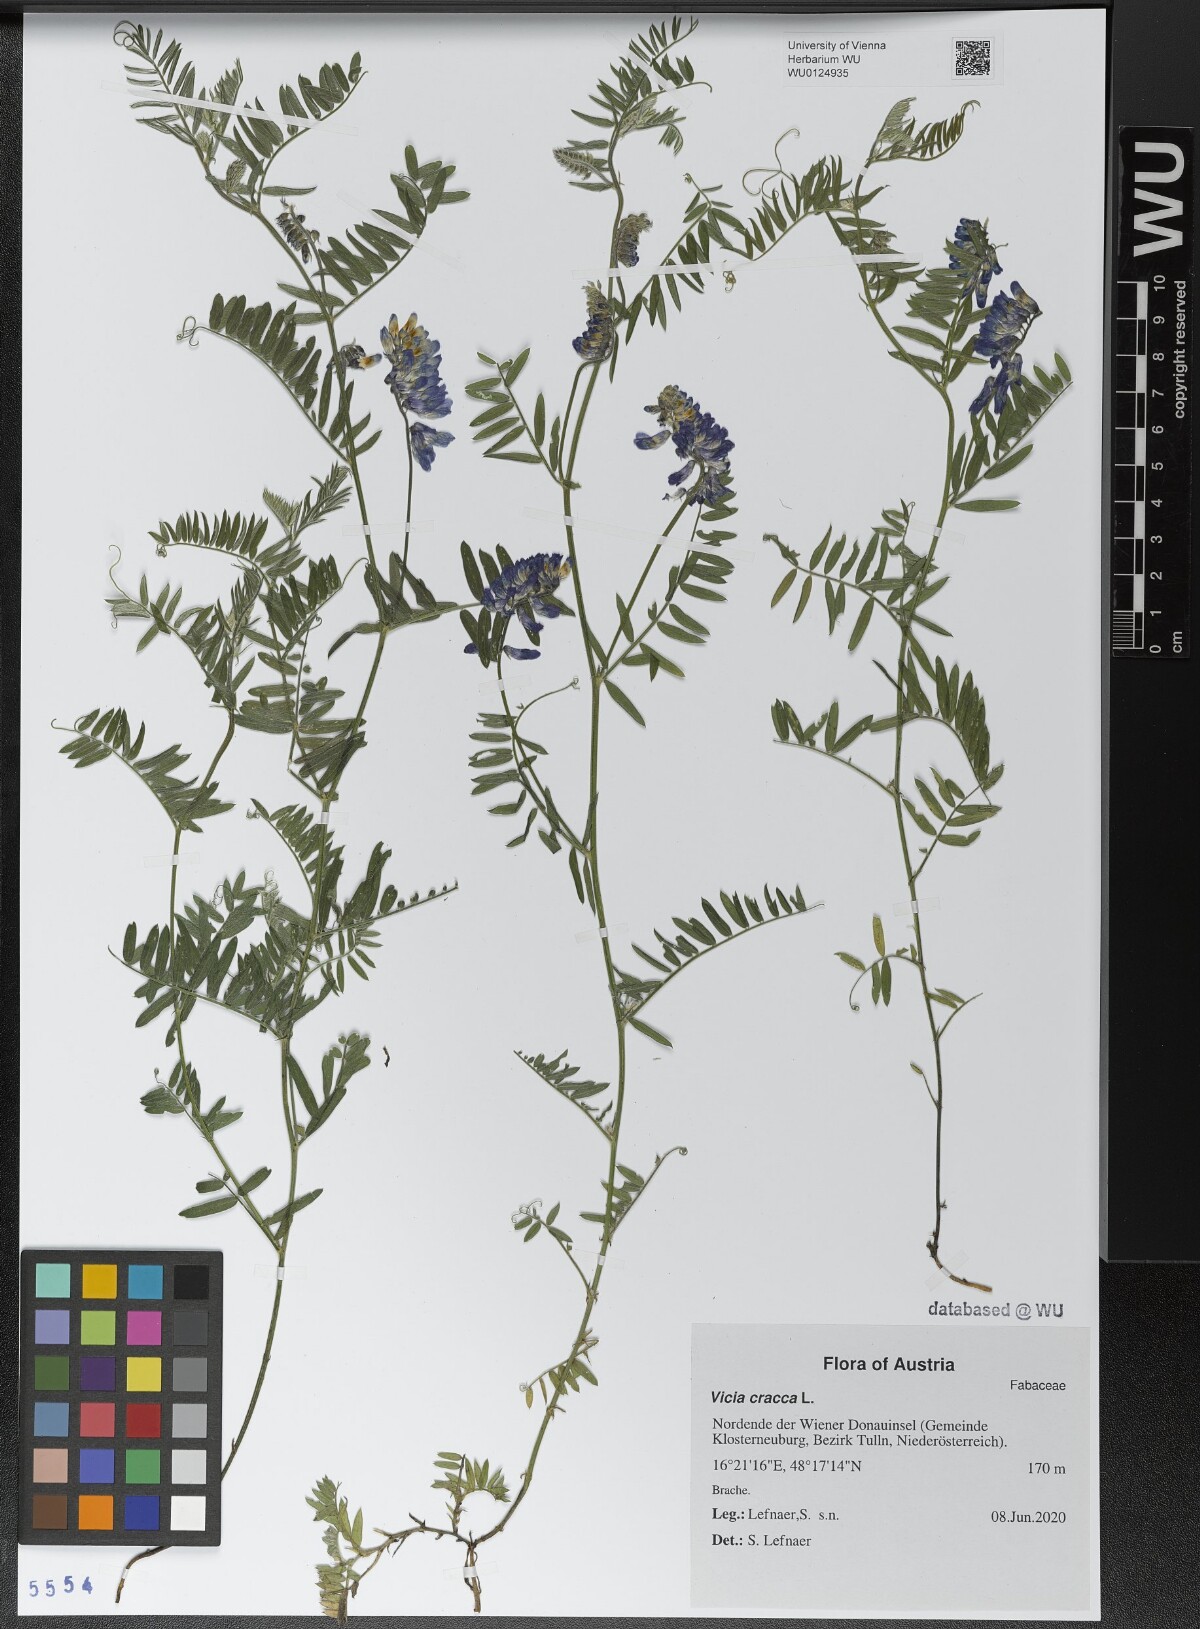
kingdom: Plantae
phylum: Tracheophyta
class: Magnoliopsida
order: Fabales
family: Fabaceae
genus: Vicia
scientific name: Vicia cracca
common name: Bird vetch
